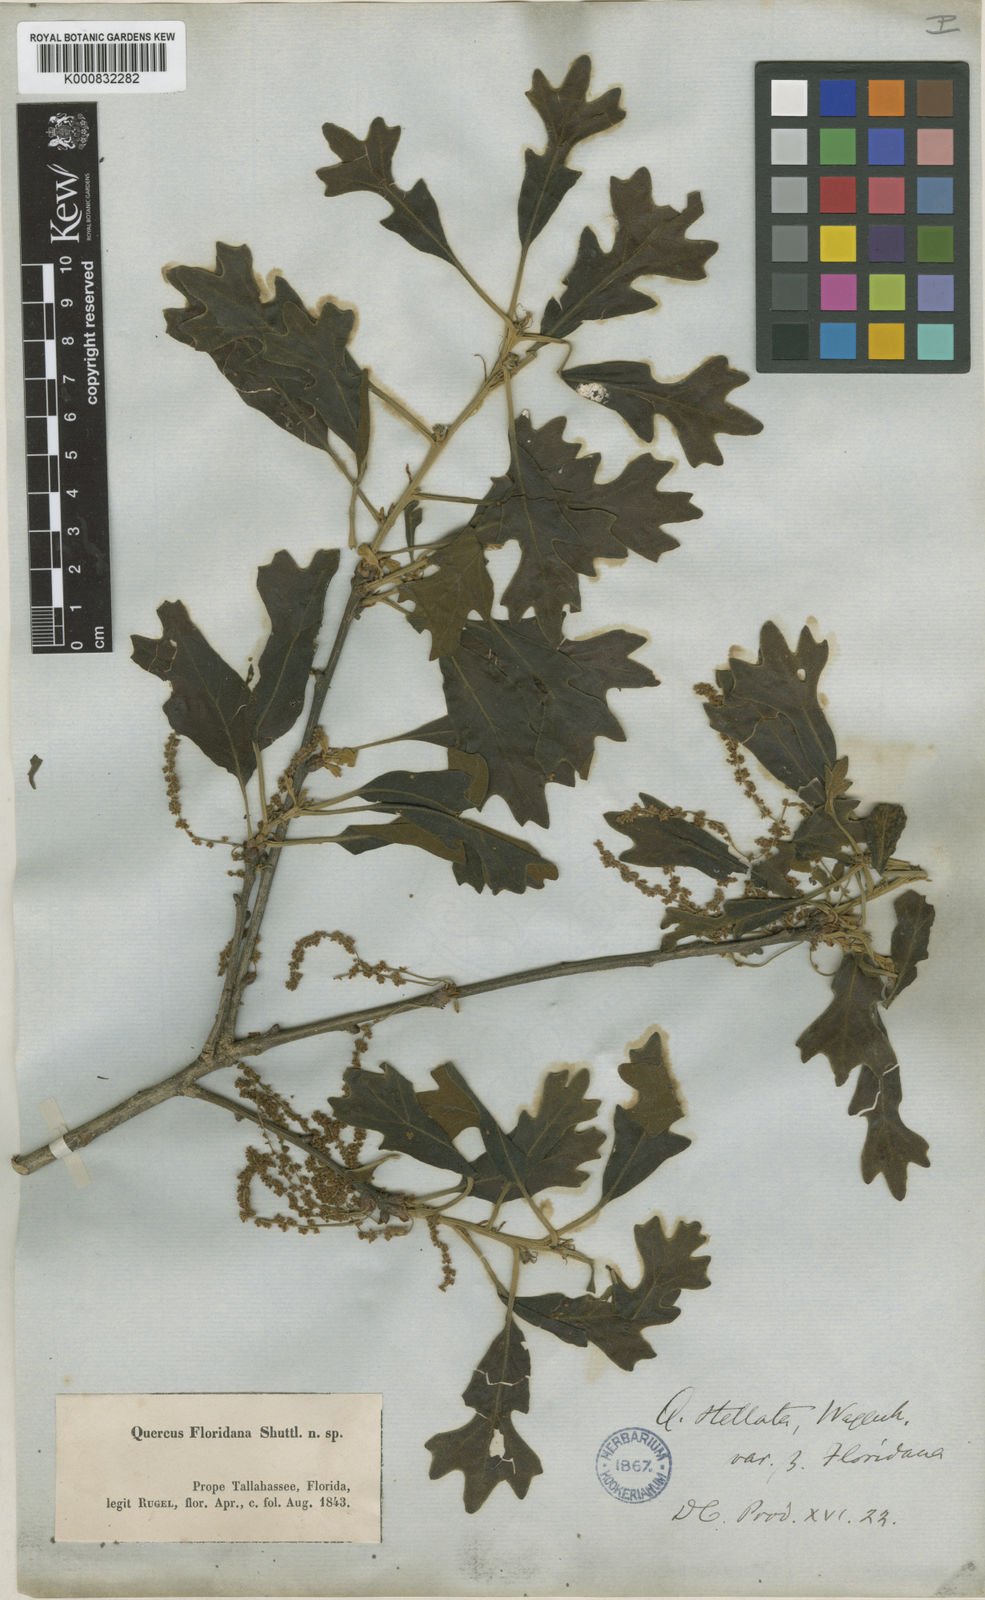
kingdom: Plantae
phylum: Tracheophyta
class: Magnoliopsida
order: Fagales
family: Fagaceae
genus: Quercus
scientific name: Quercus stellata
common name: Post oak
